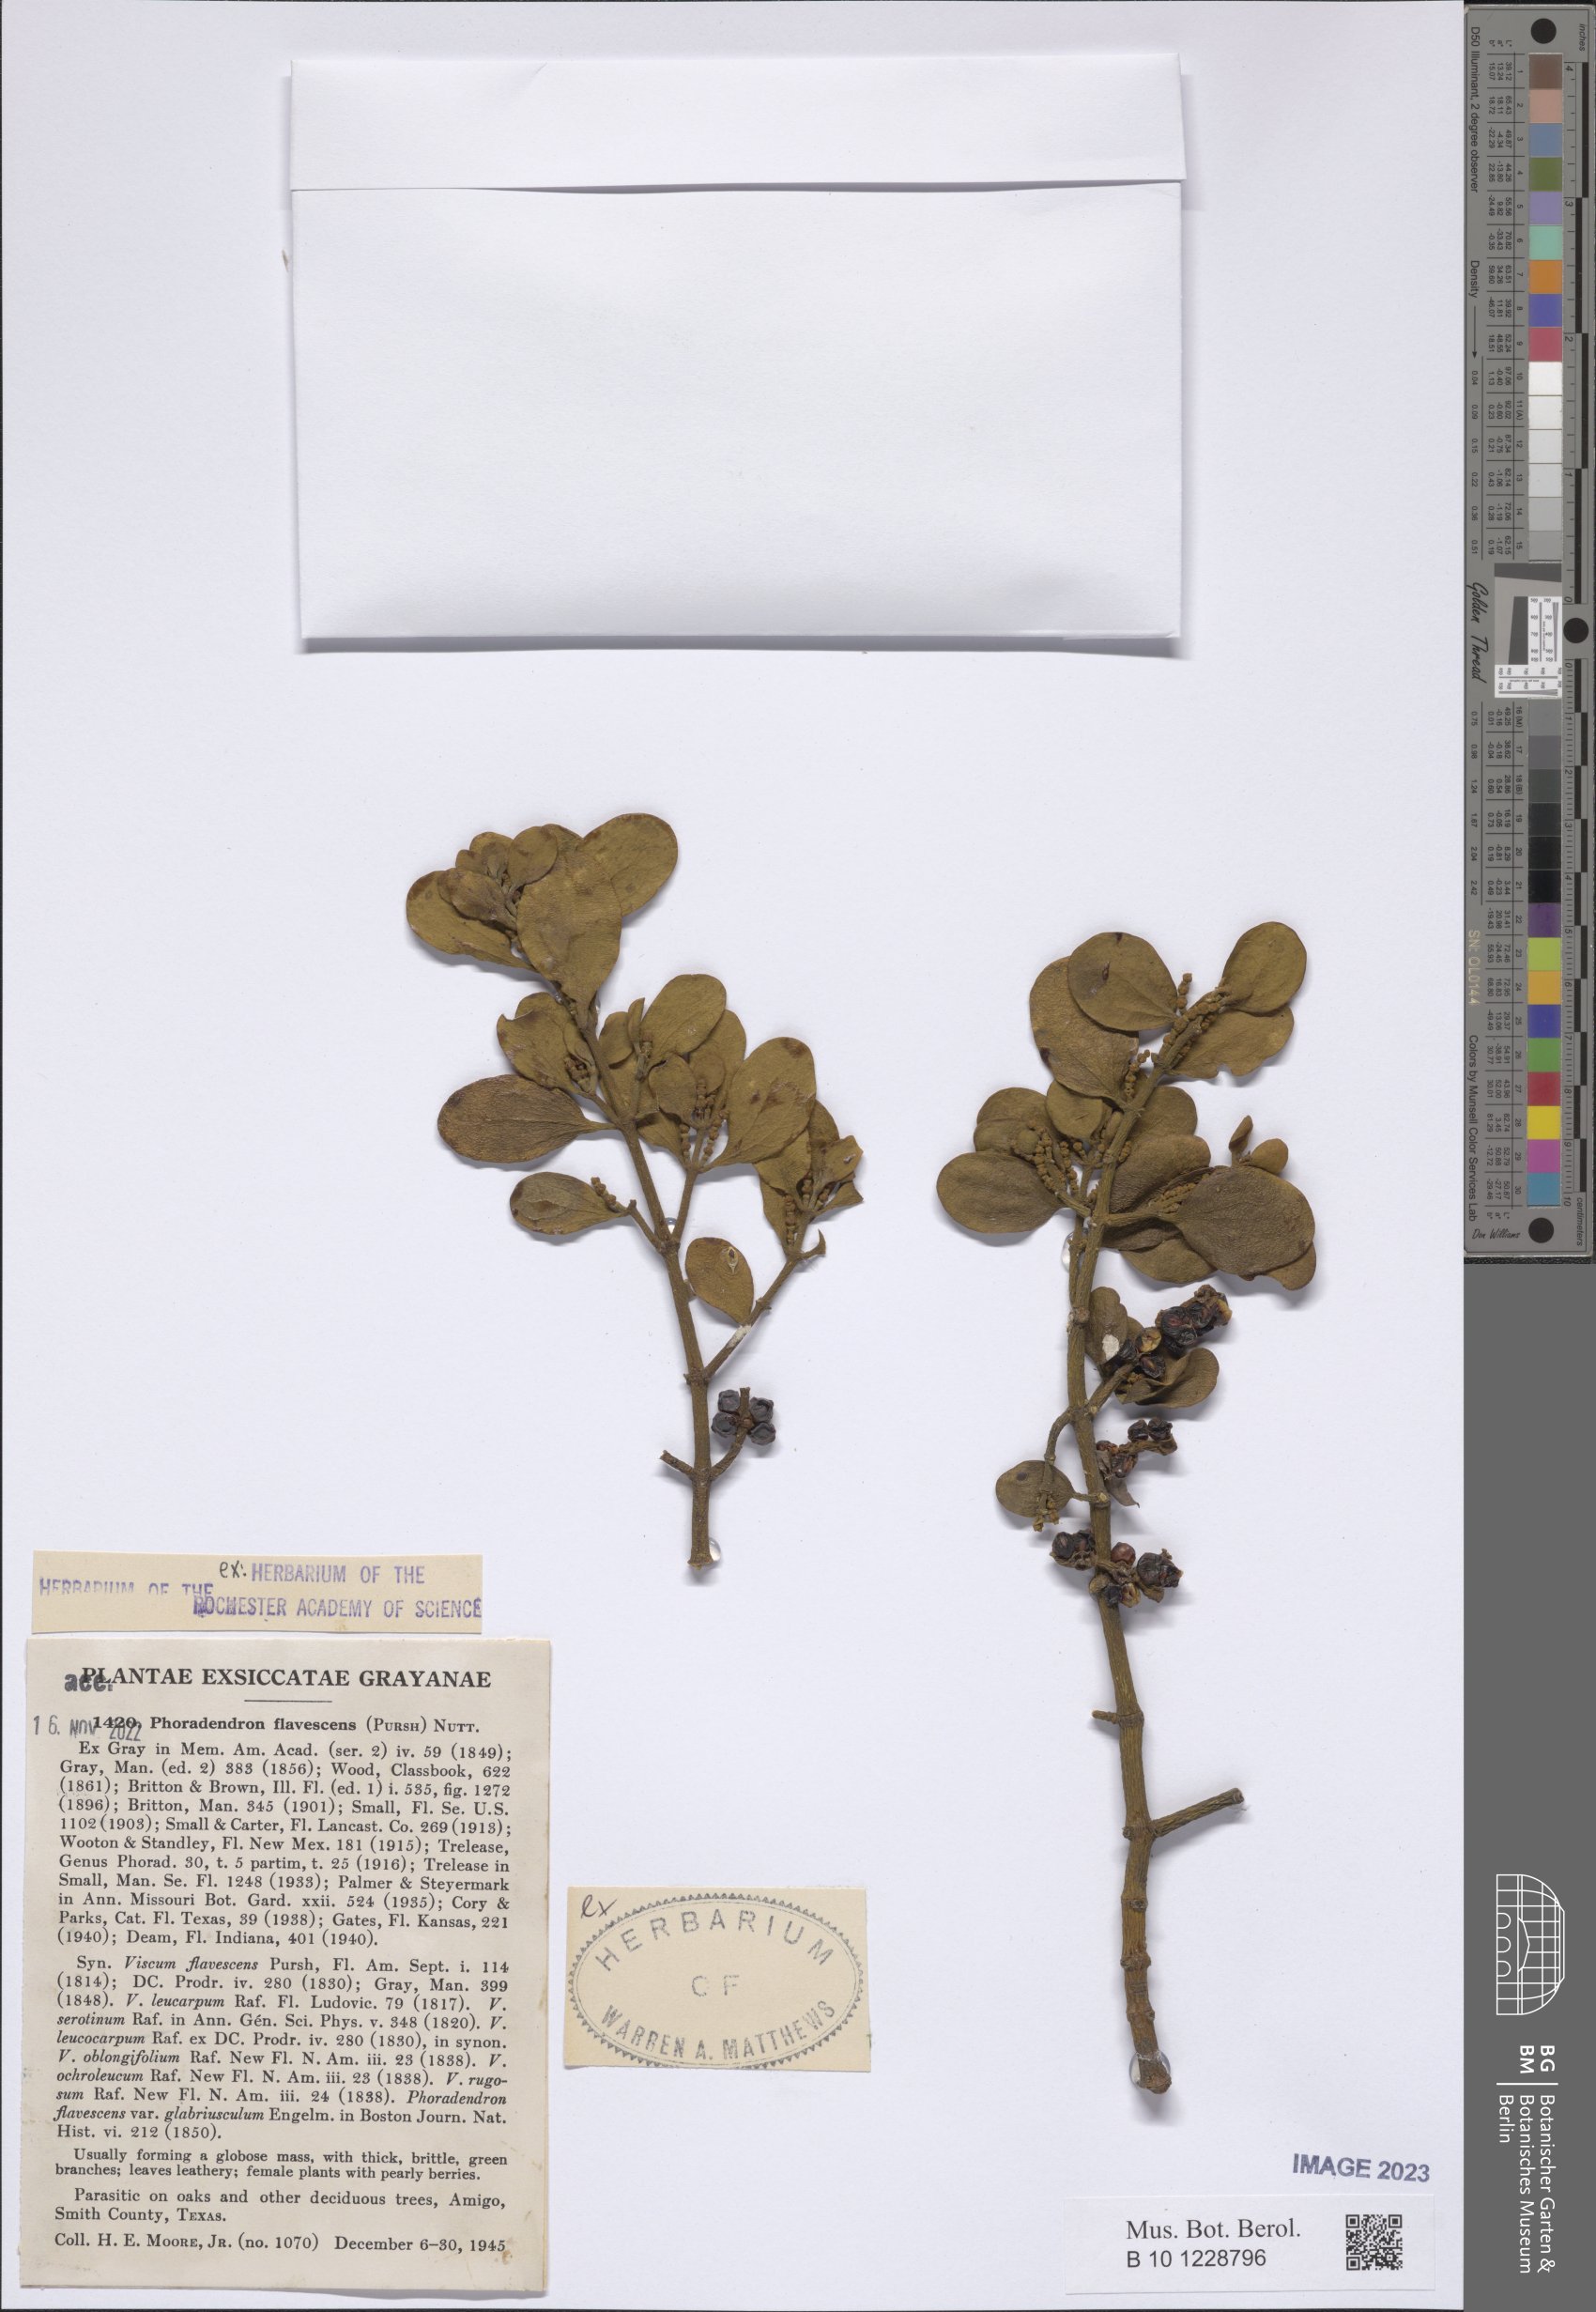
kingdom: Plantae
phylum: Tracheophyta
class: Magnoliopsida
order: Santalales
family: Viscaceae
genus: Phoradendron
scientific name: Phoradendron leucarpum
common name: Pacific mistletoe
